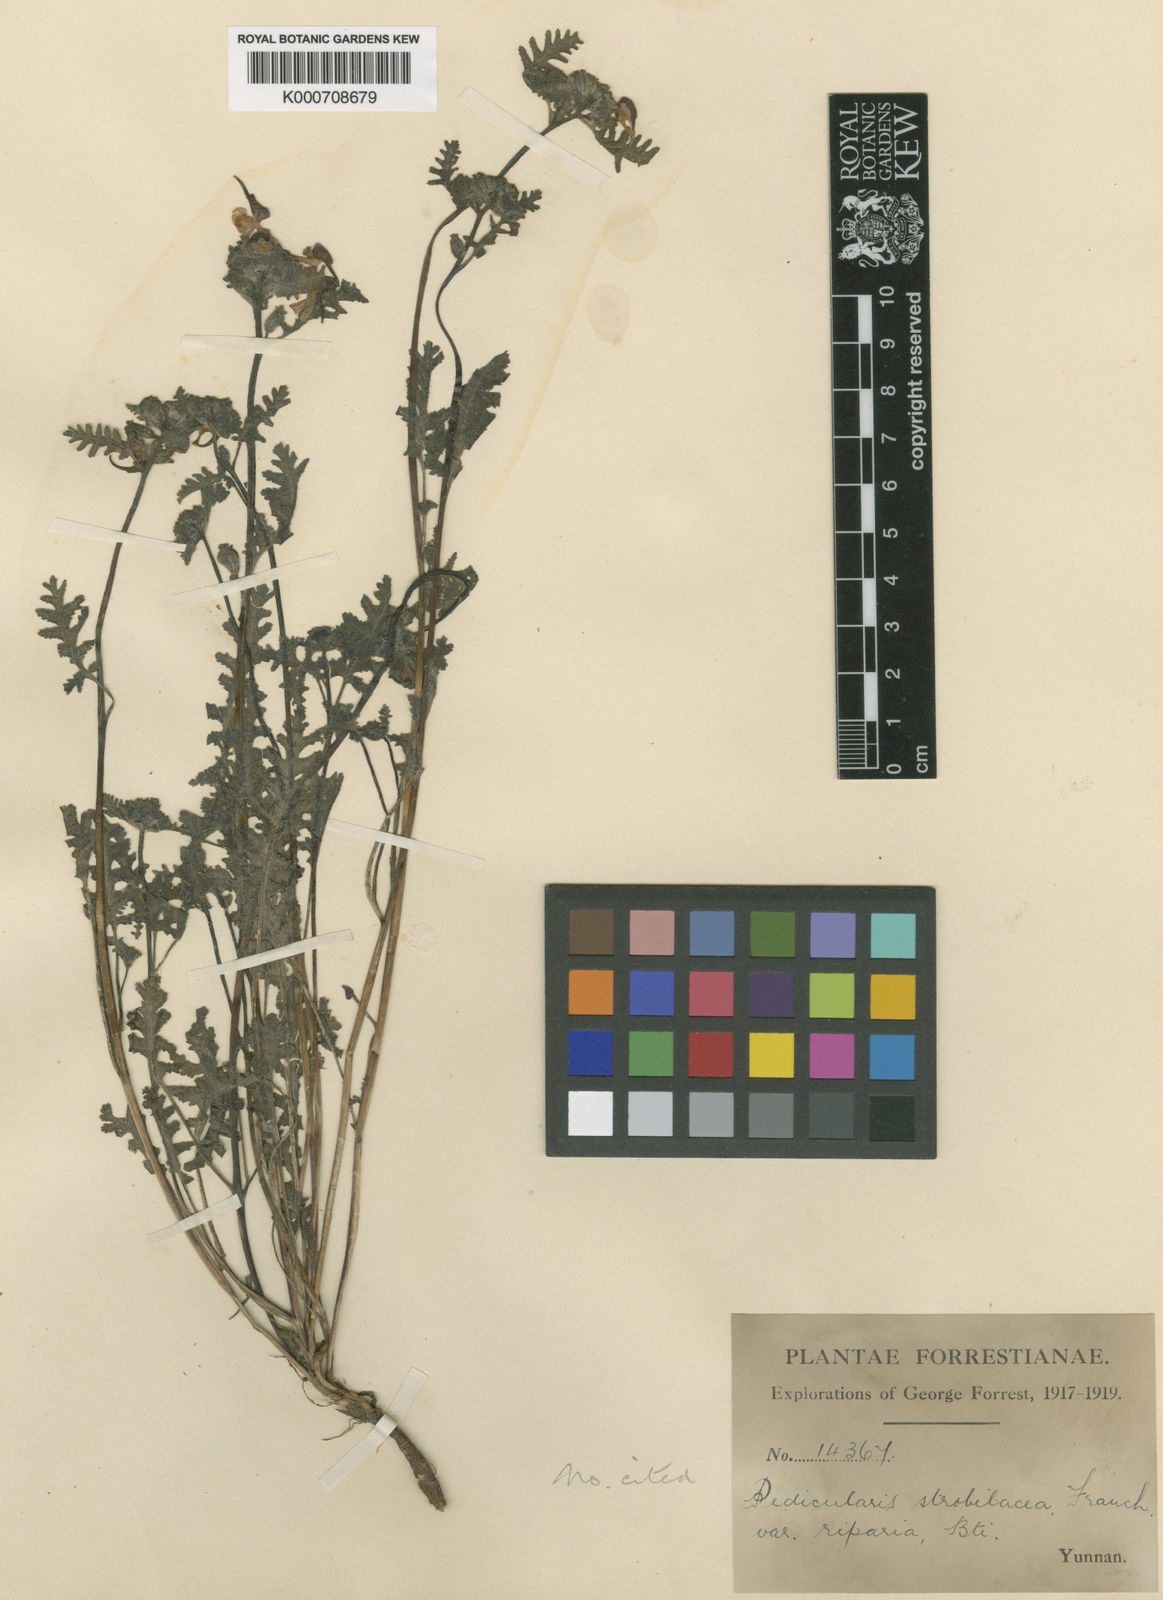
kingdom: Plantae
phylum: Tracheophyta
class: Magnoliopsida
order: Lamiales
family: Orobanchaceae
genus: Pedicularis
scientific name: Pedicularis
